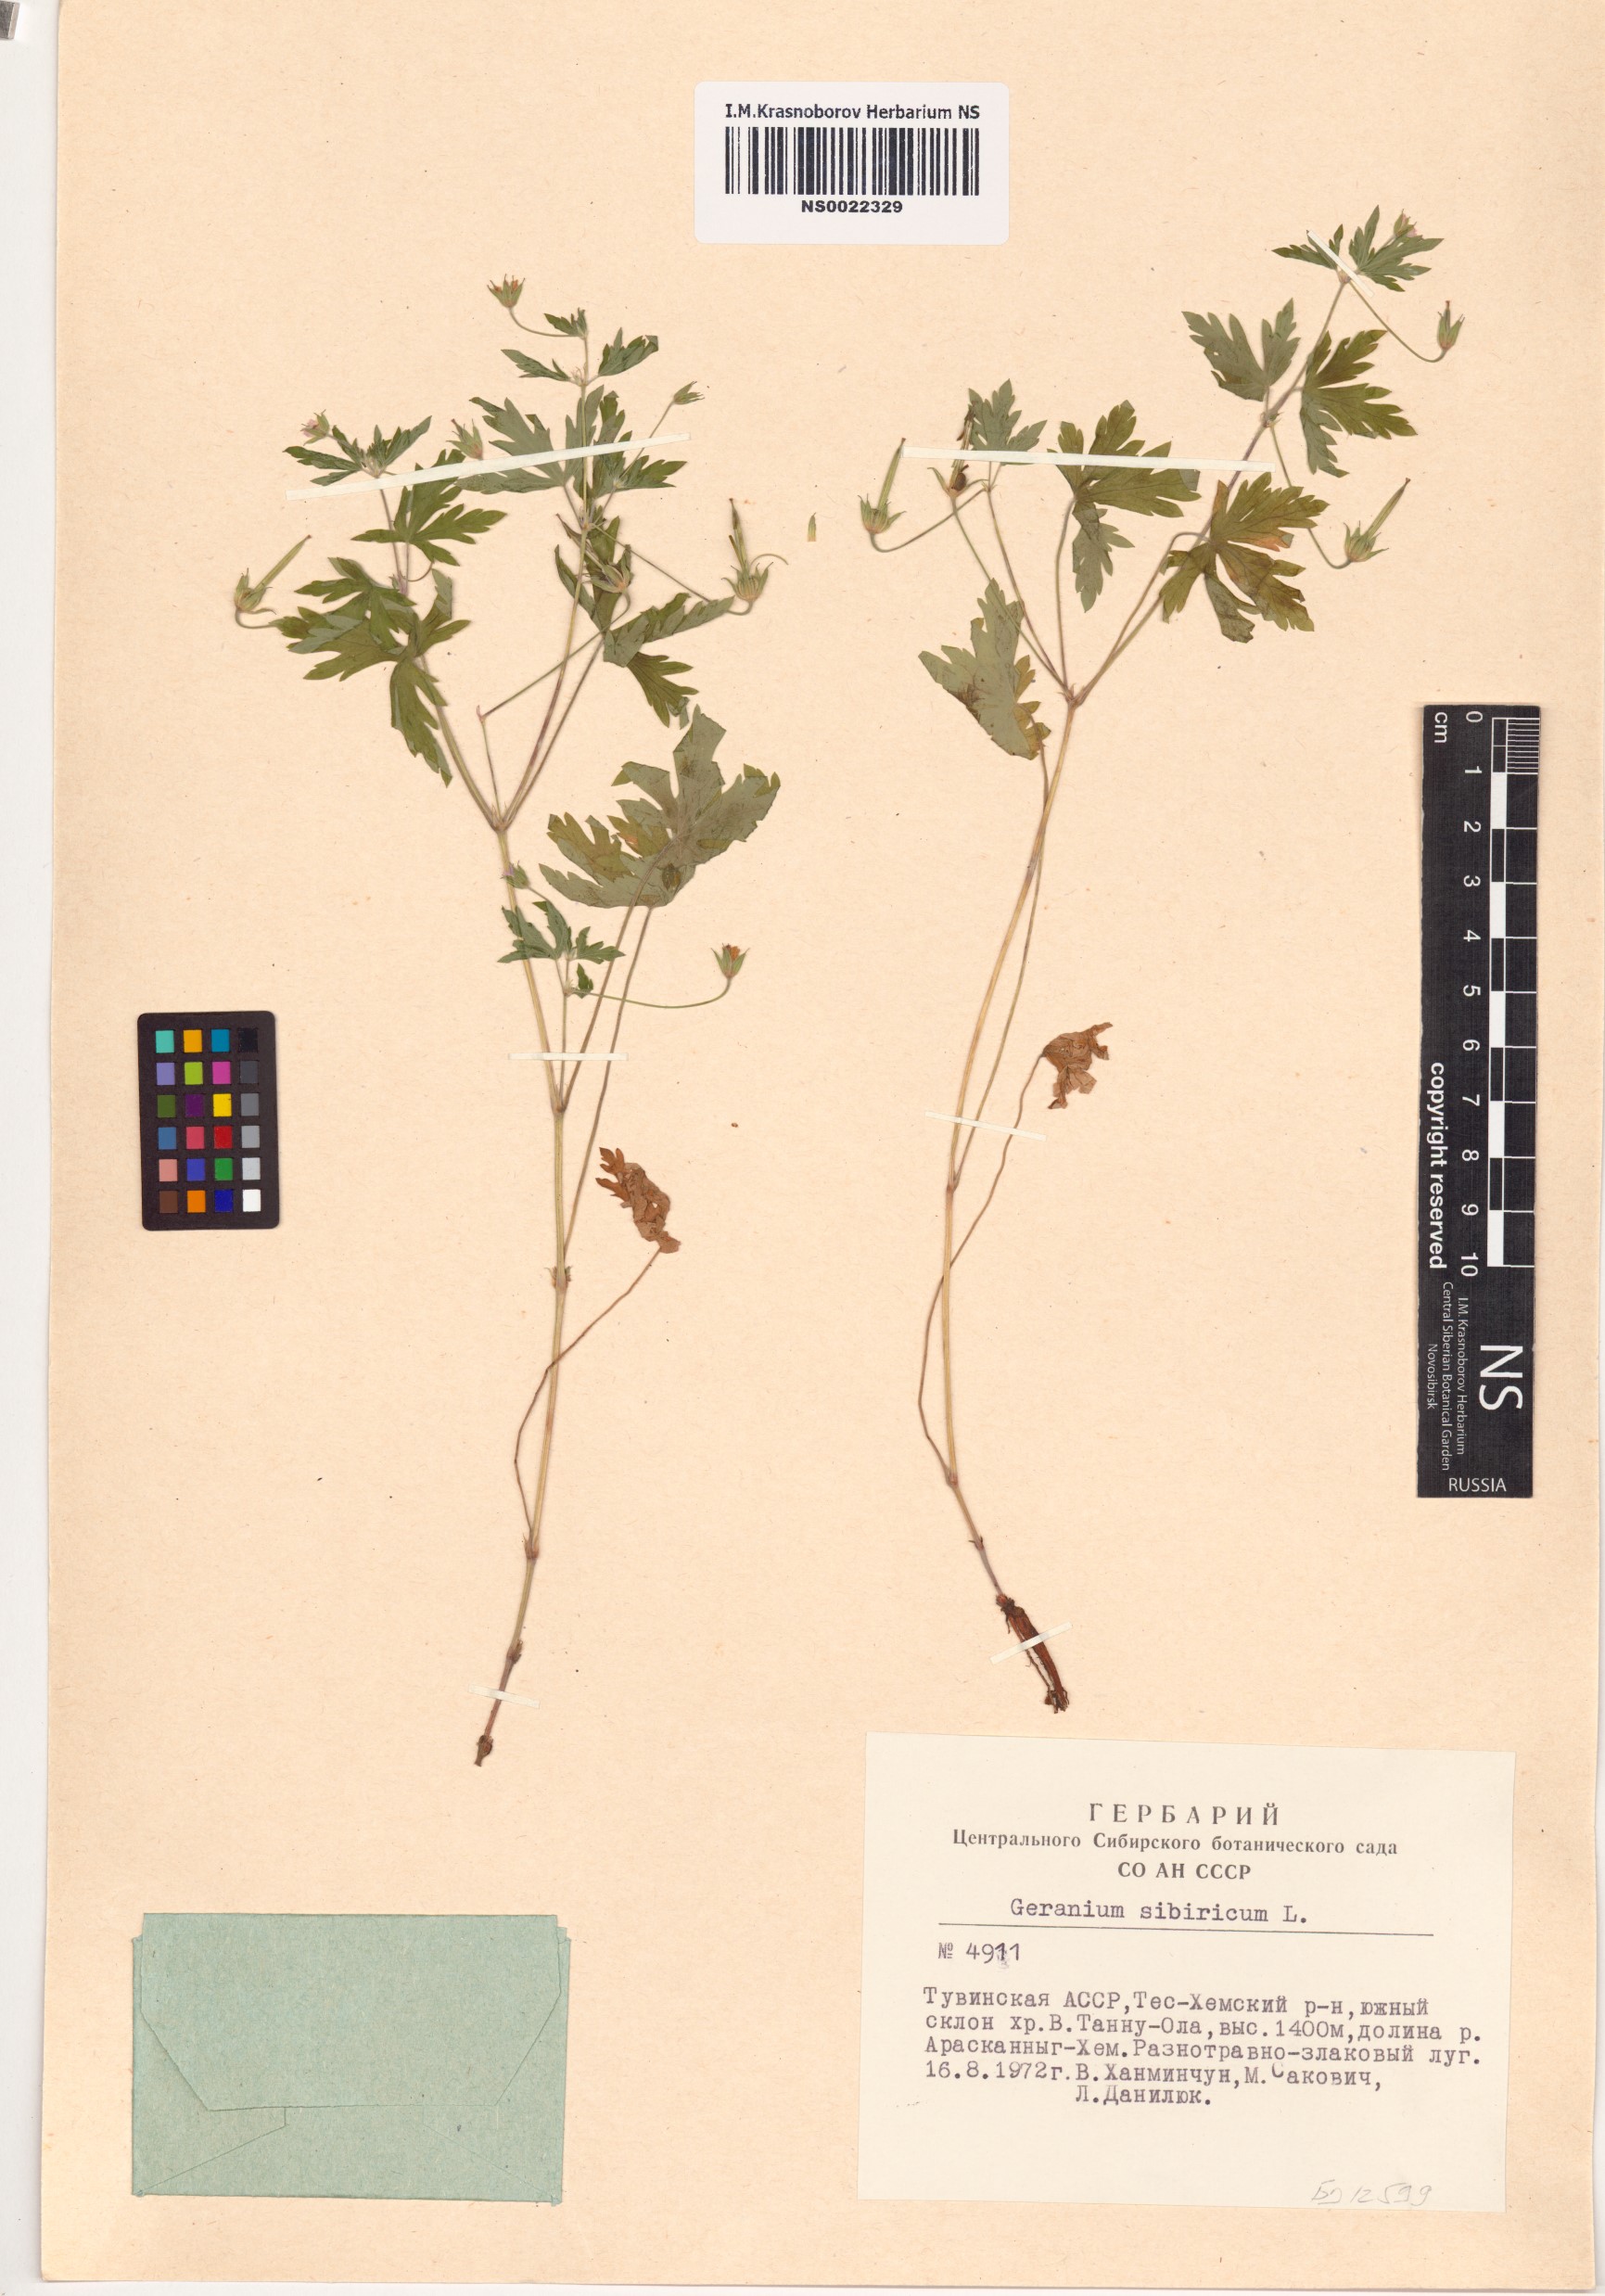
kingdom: Plantae
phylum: Tracheophyta
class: Magnoliopsida
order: Geraniales
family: Geraniaceae
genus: Geranium
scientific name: Geranium sibiricum
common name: Siberian crane's-bill
